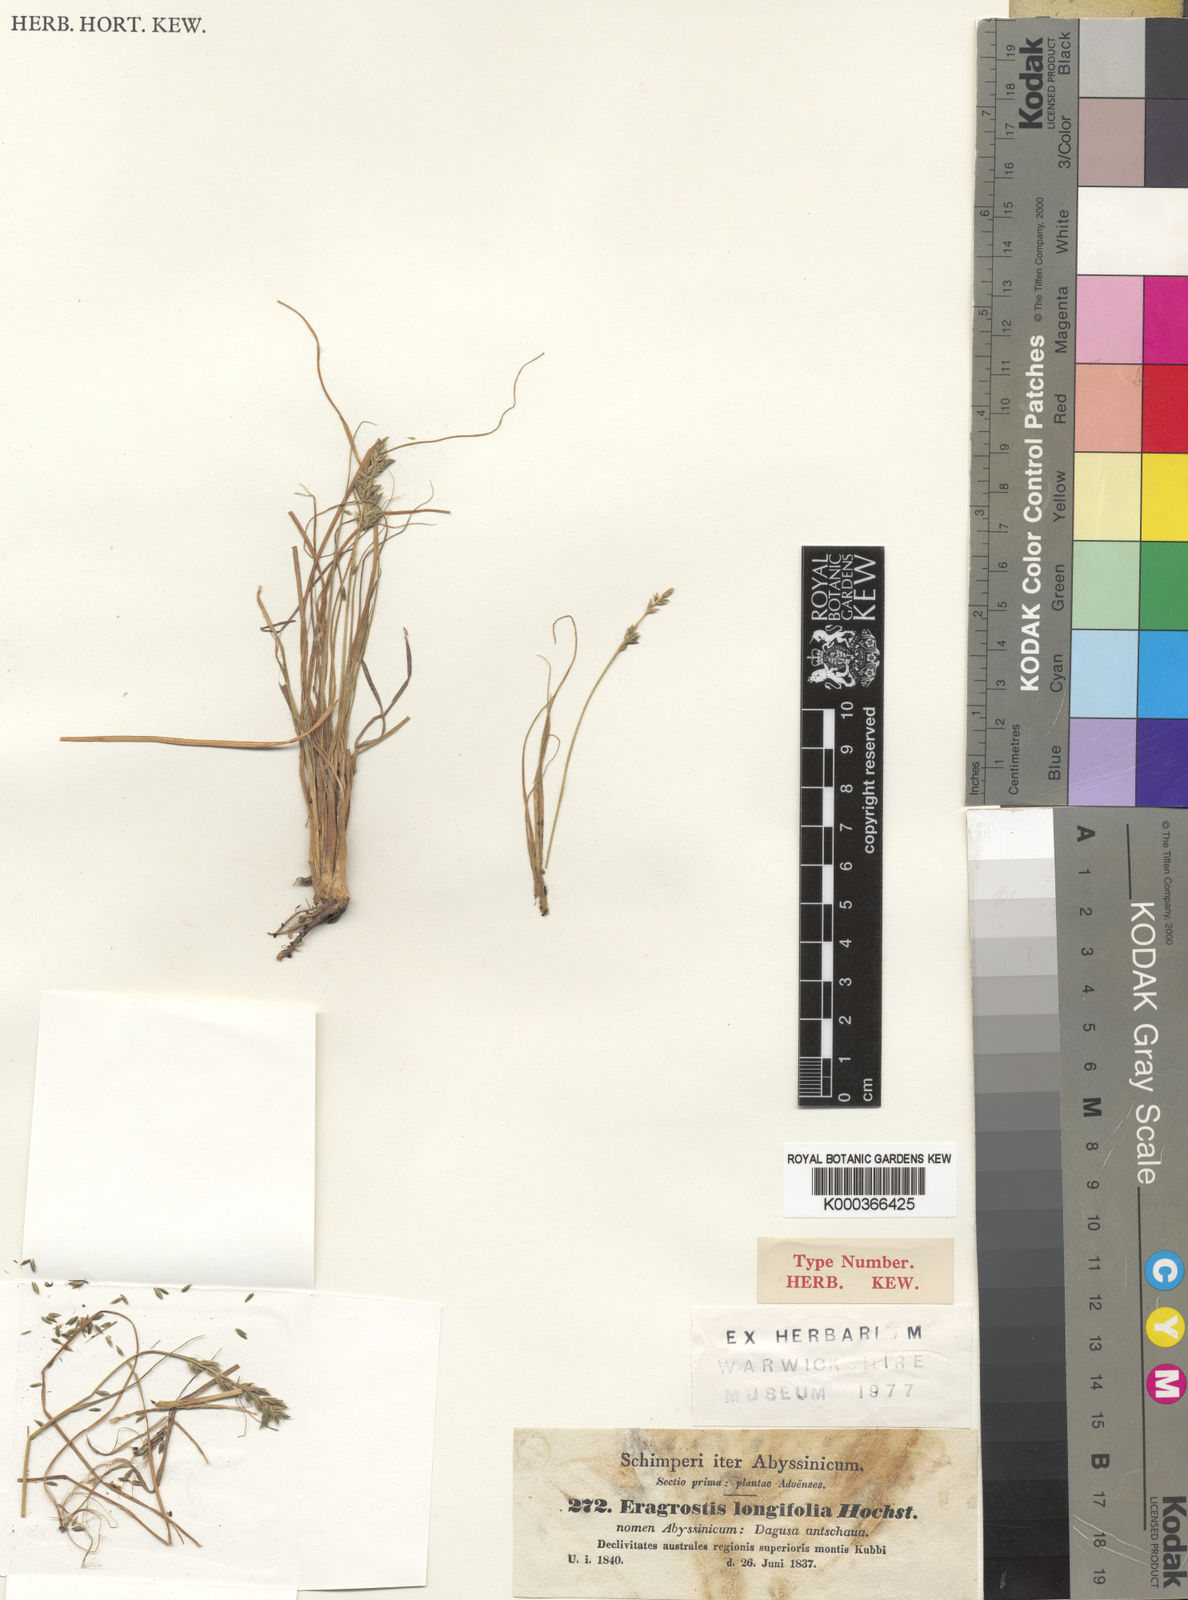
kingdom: Plantae
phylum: Tracheophyta
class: Liliopsida
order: Poales
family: Poaceae
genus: Eragrostis
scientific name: Eragrostis longifolia
